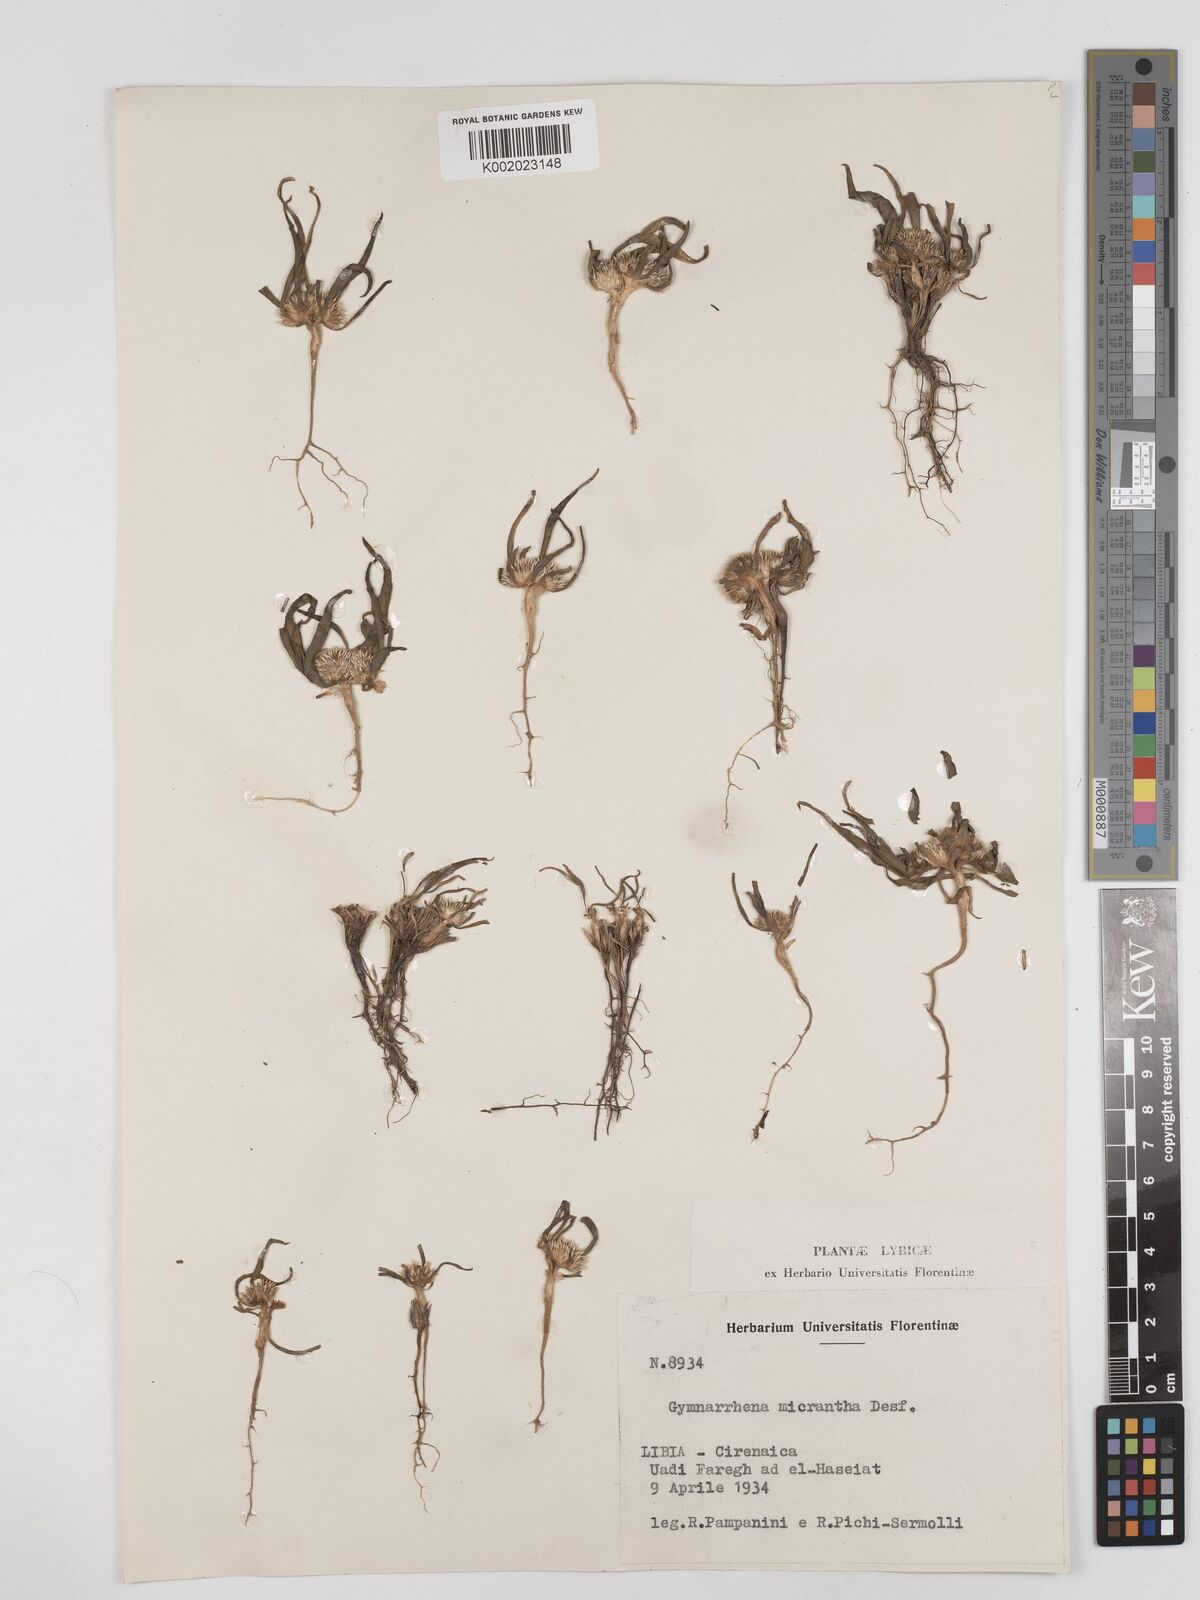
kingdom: Plantae
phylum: Tracheophyta
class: Magnoliopsida
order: Asterales
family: Asteraceae
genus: Gymnarrhena
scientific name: Gymnarrhena micrantha
